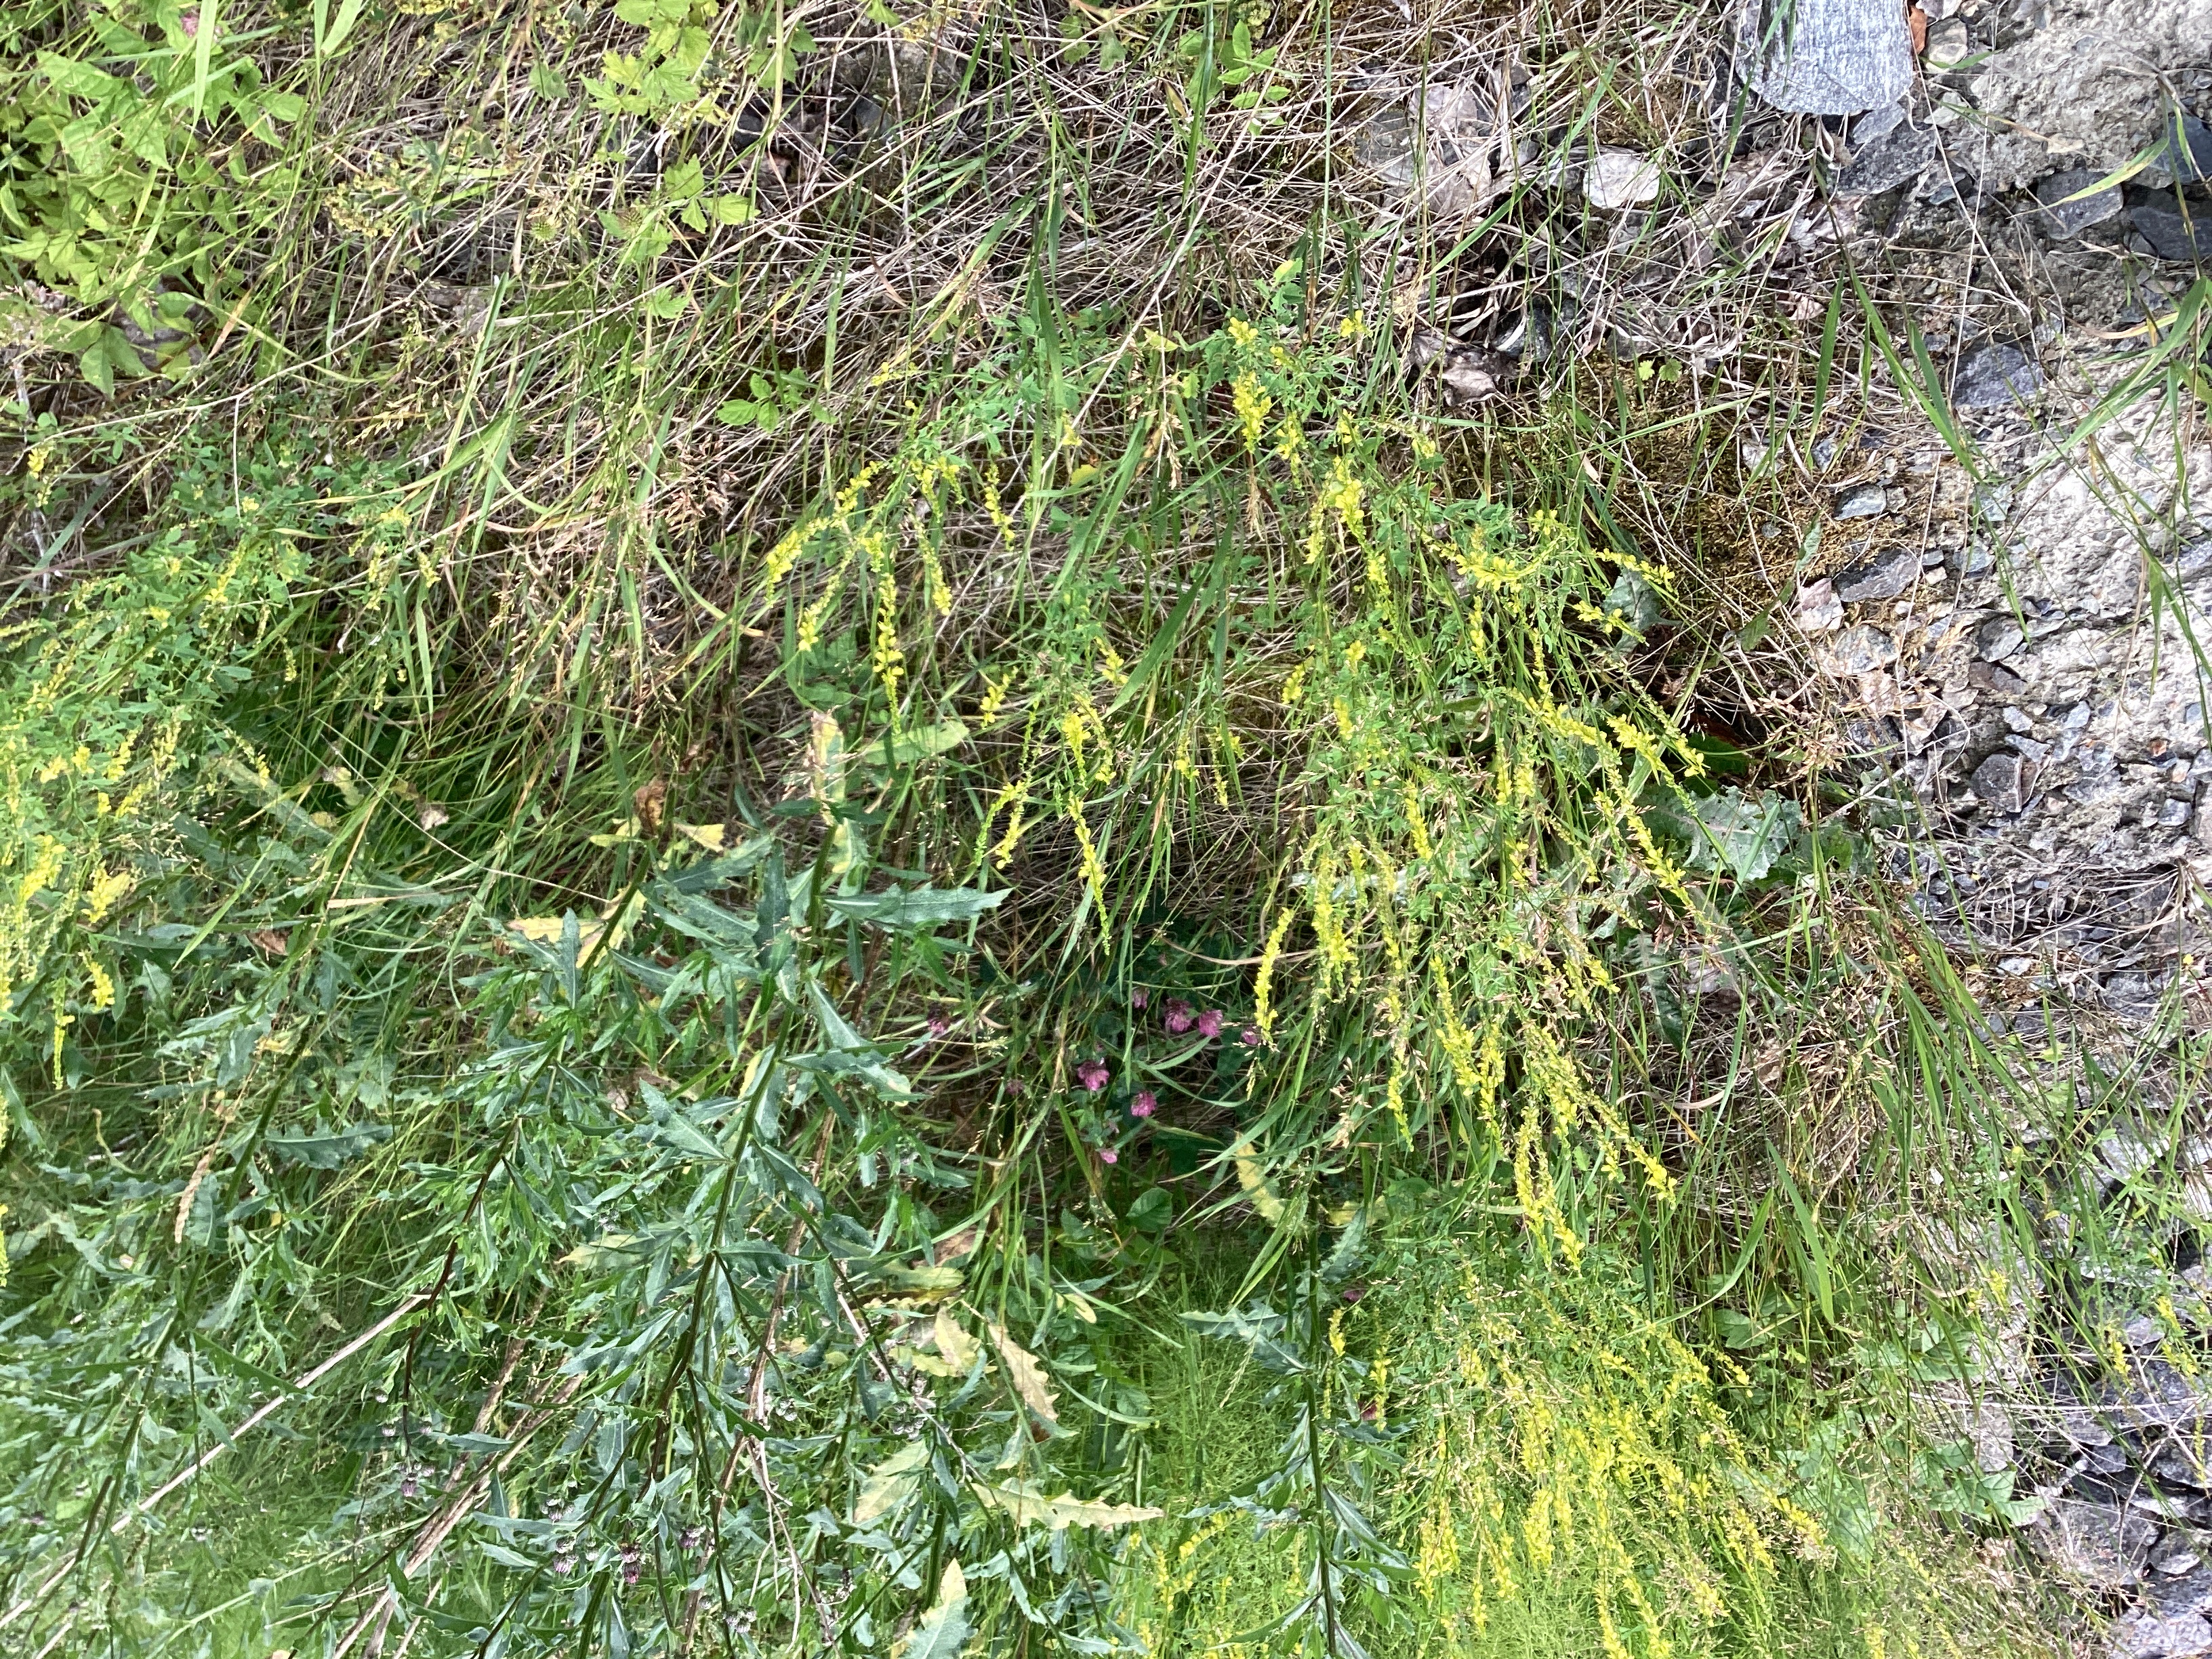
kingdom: Plantae
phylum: Tracheophyta
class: Magnoliopsida
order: Fabales
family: Fabaceae
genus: Melilotus
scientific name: Melilotus officinalis
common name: legesteinkløver
